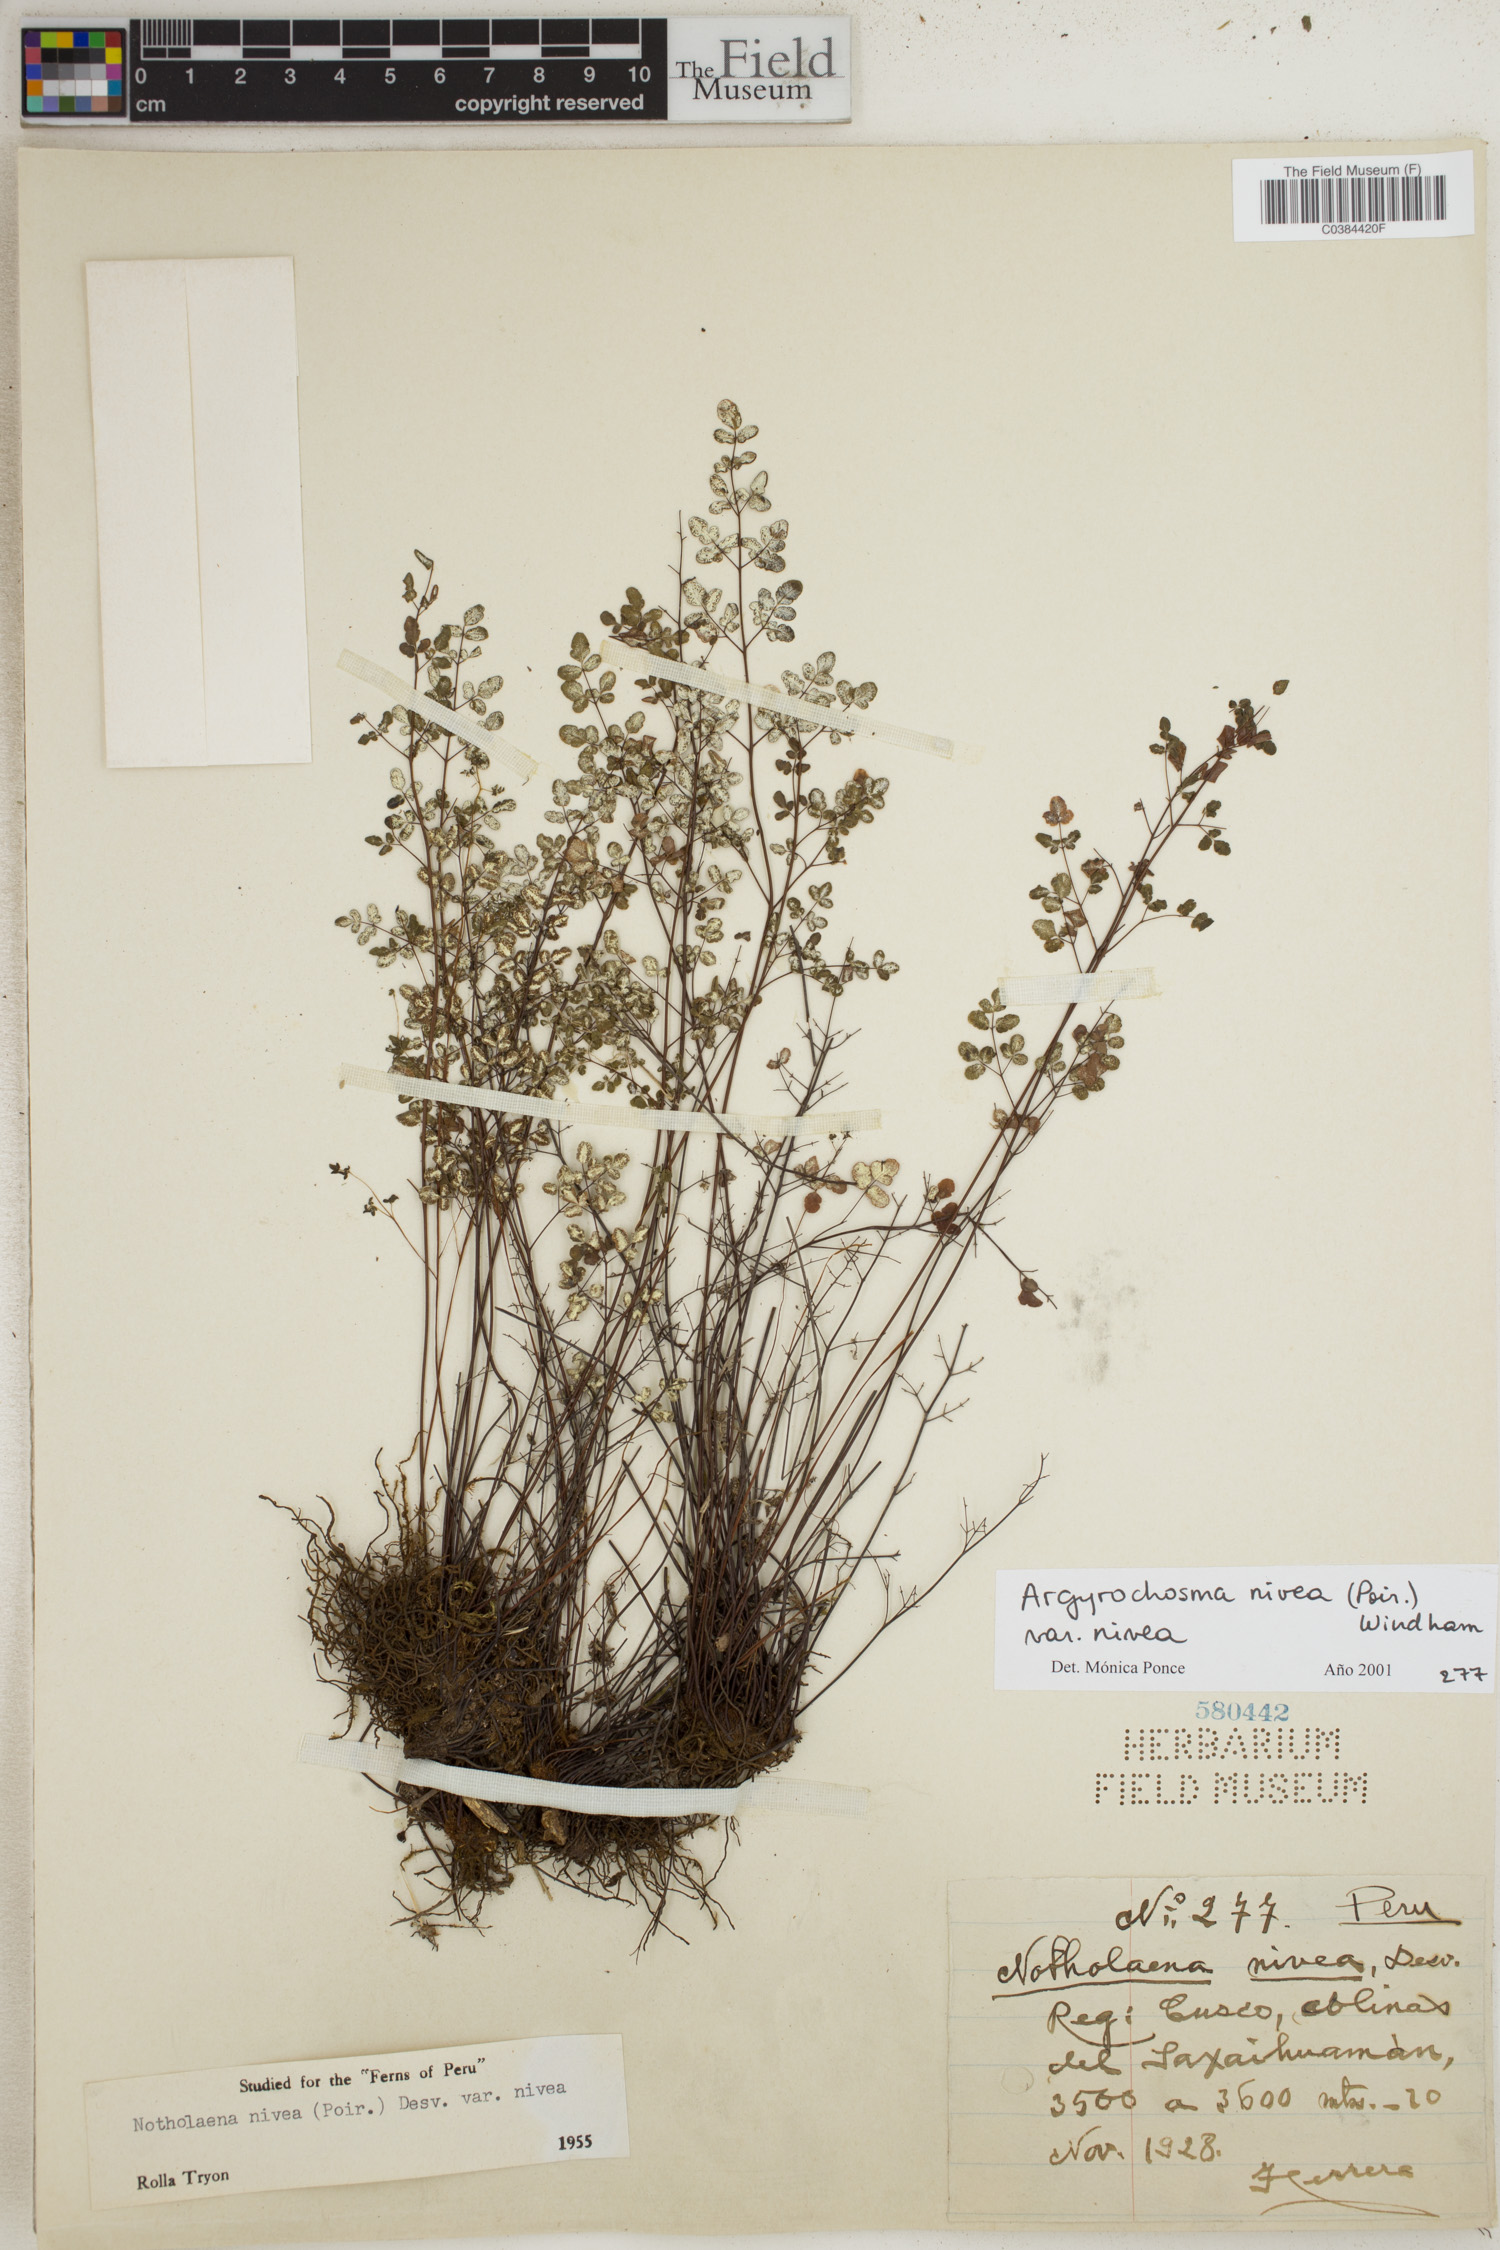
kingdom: Plantae
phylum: Tracheophyta
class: Polypodiopsida
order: Polypodiales
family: Pteridaceae
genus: Argyrochosma
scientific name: Argyrochosma nivea
